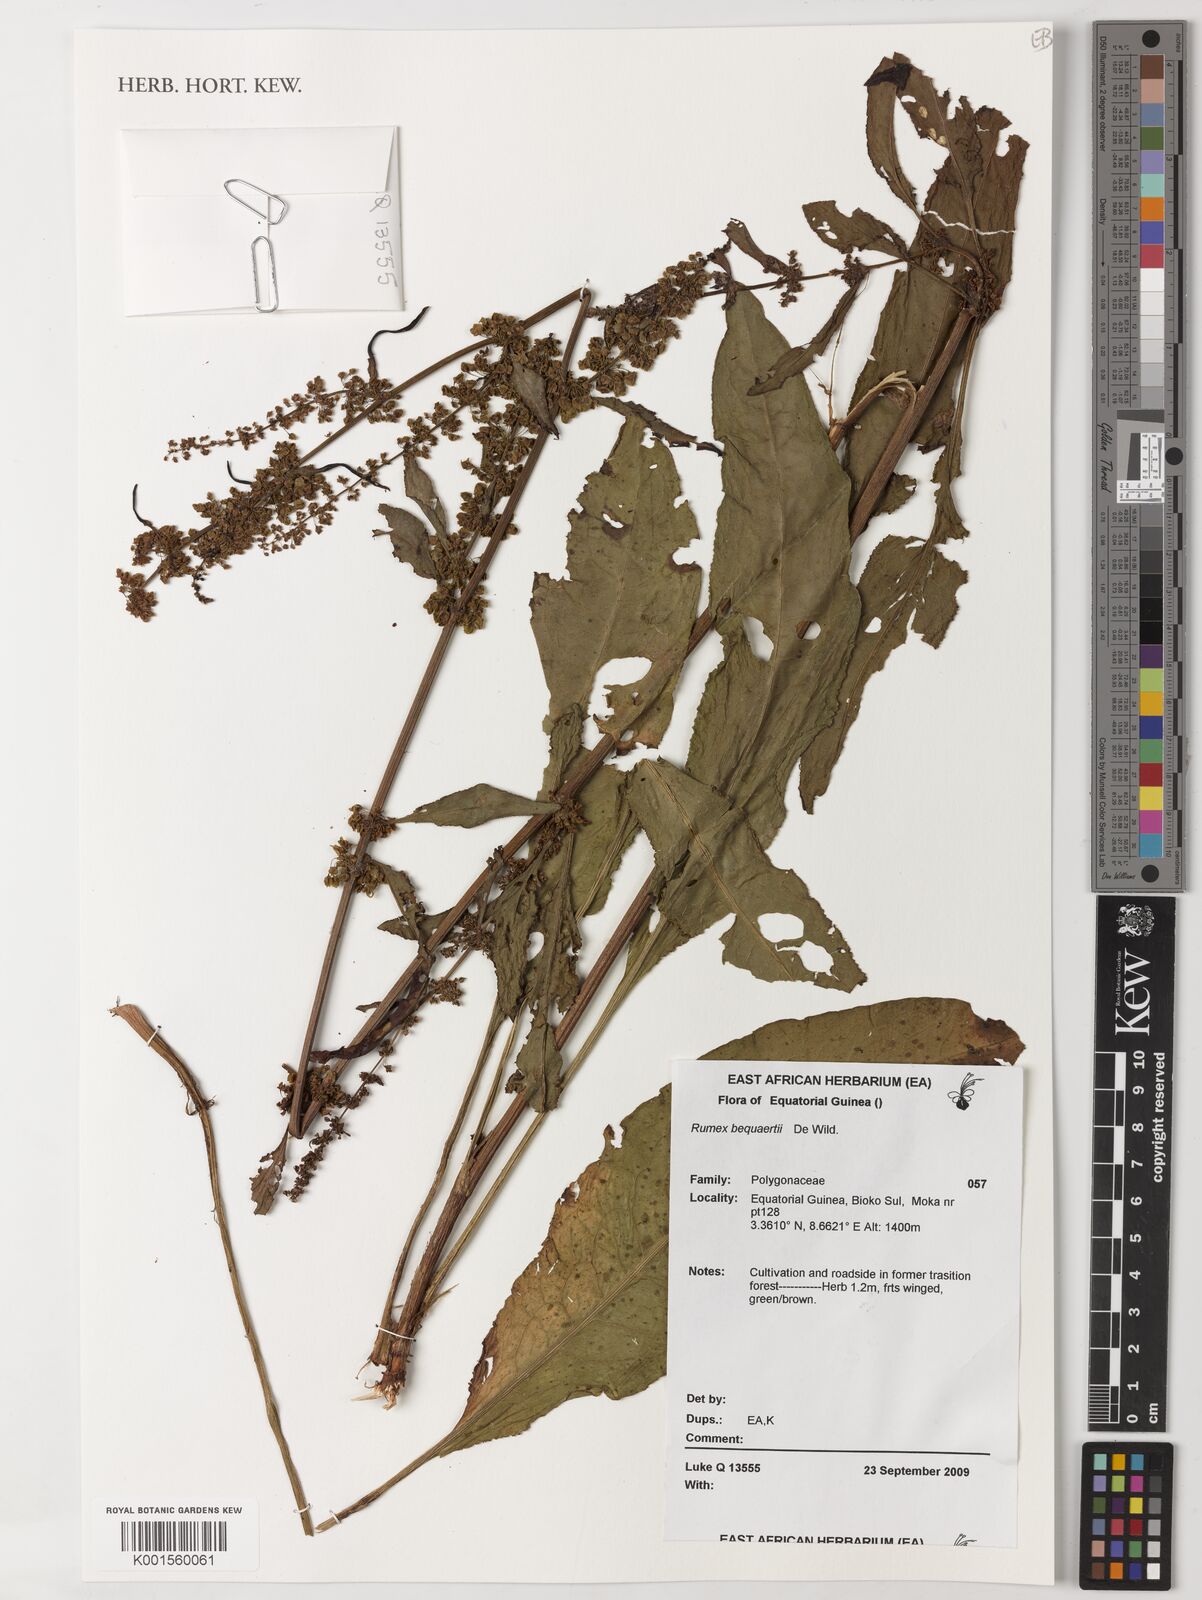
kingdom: Plantae
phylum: Tracheophyta
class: Magnoliopsida
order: Caryophyllales
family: Polygonaceae
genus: Rumex
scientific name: Rumex bequaertii
